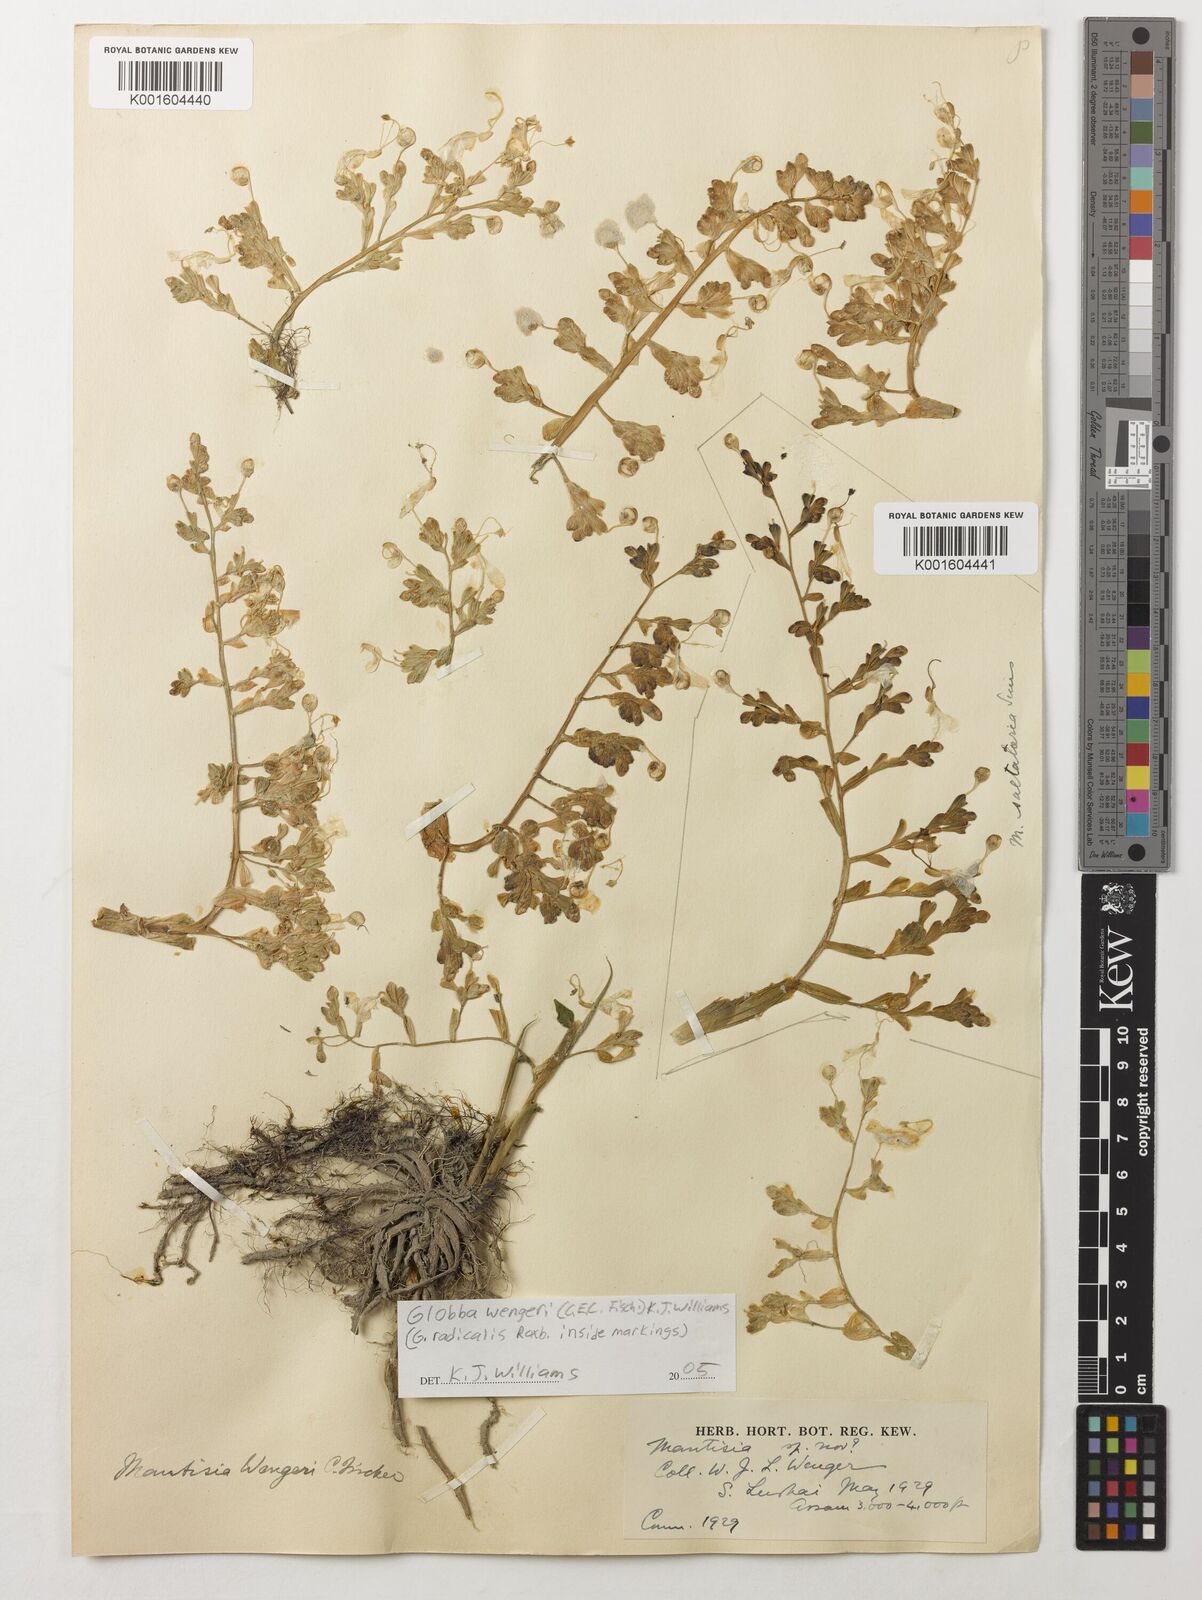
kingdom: Plantae
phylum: Tracheophyta
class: Liliopsida
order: Zingiberales
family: Zingiberaceae
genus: Globba
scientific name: Globba wengeri
